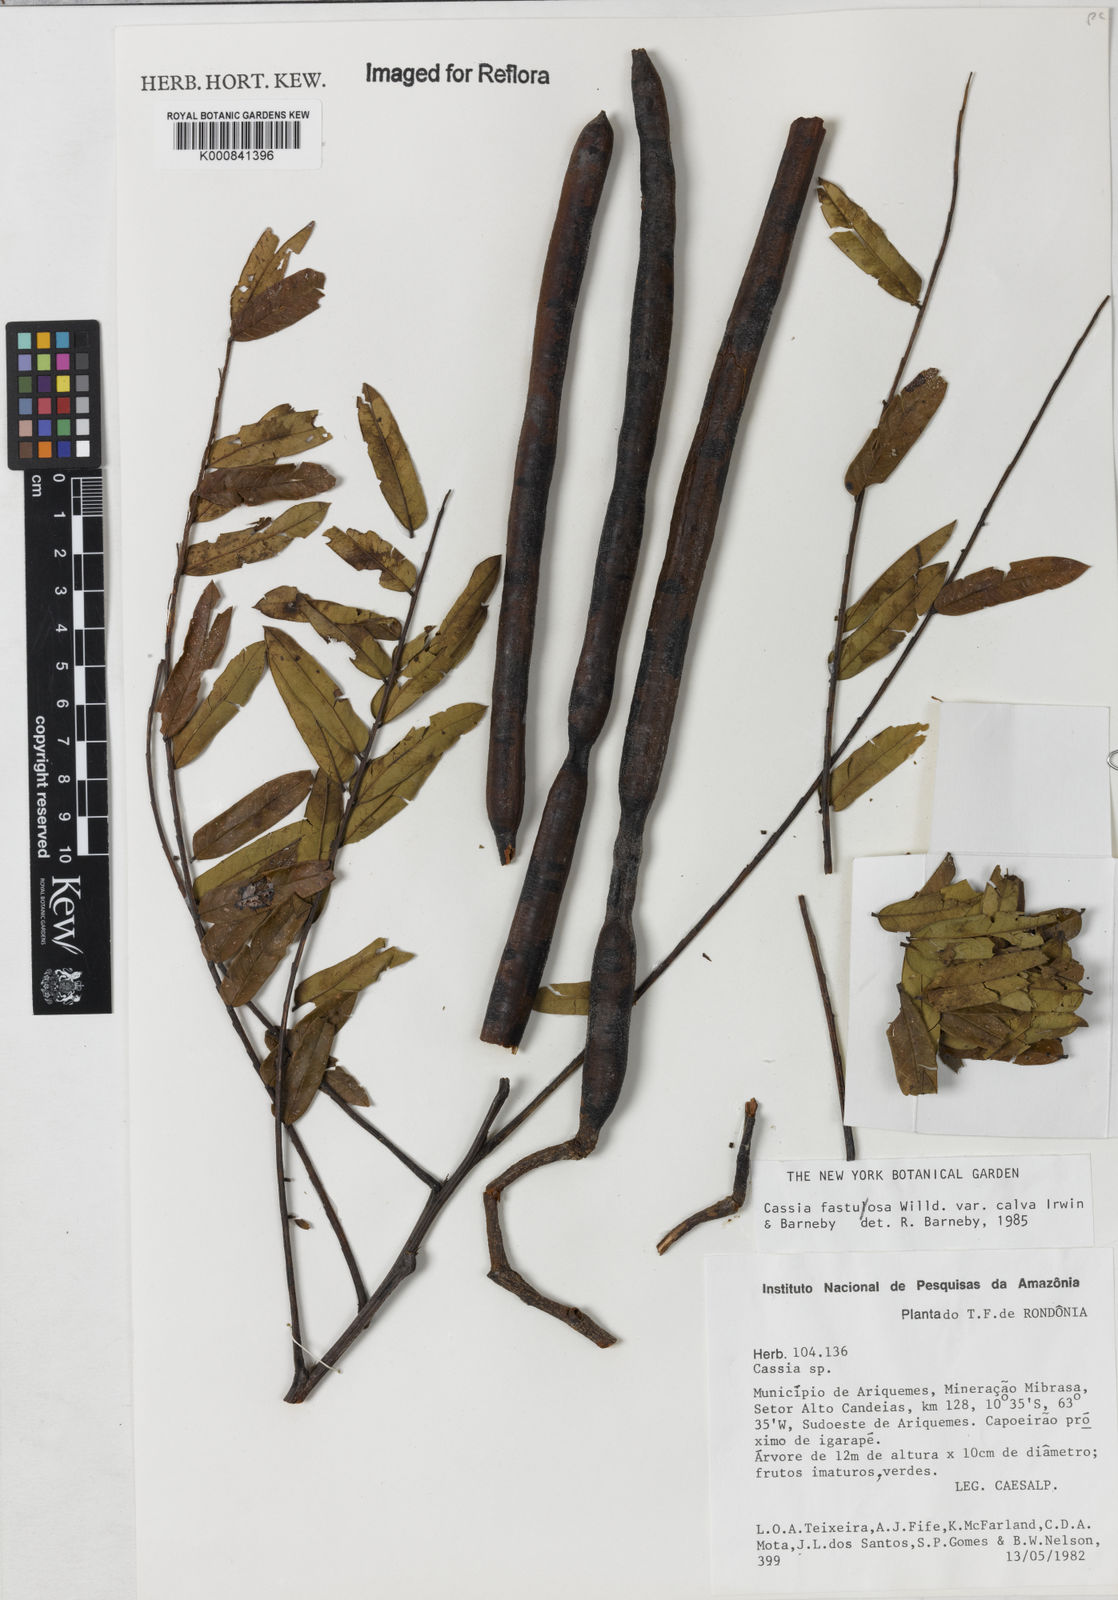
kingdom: Plantae
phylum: Tracheophyta
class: Magnoliopsida
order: Fabales
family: Fabaceae
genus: Cassia
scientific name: Cassia fastuosa
